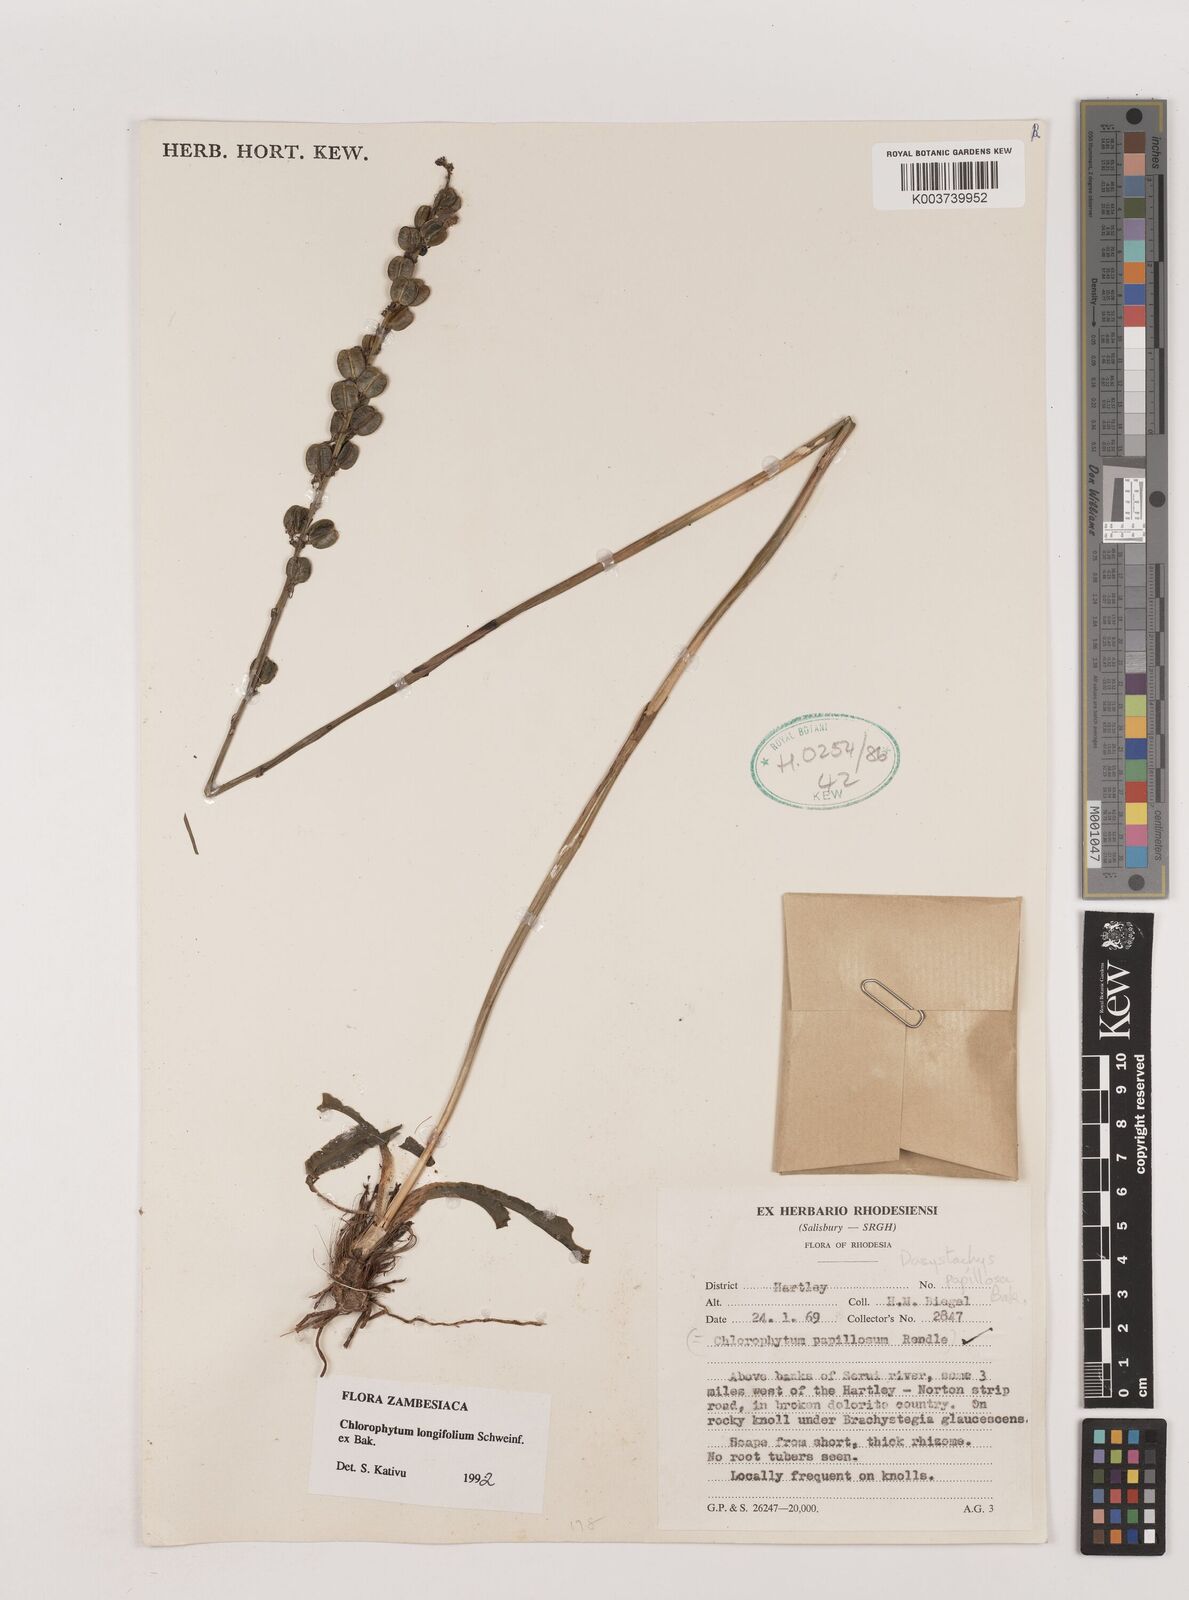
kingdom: Plantae
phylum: Tracheophyta
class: Liliopsida
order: Asparagales
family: Asparagaceae
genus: Chlorophytum
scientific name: Chlorophytum longifolium
